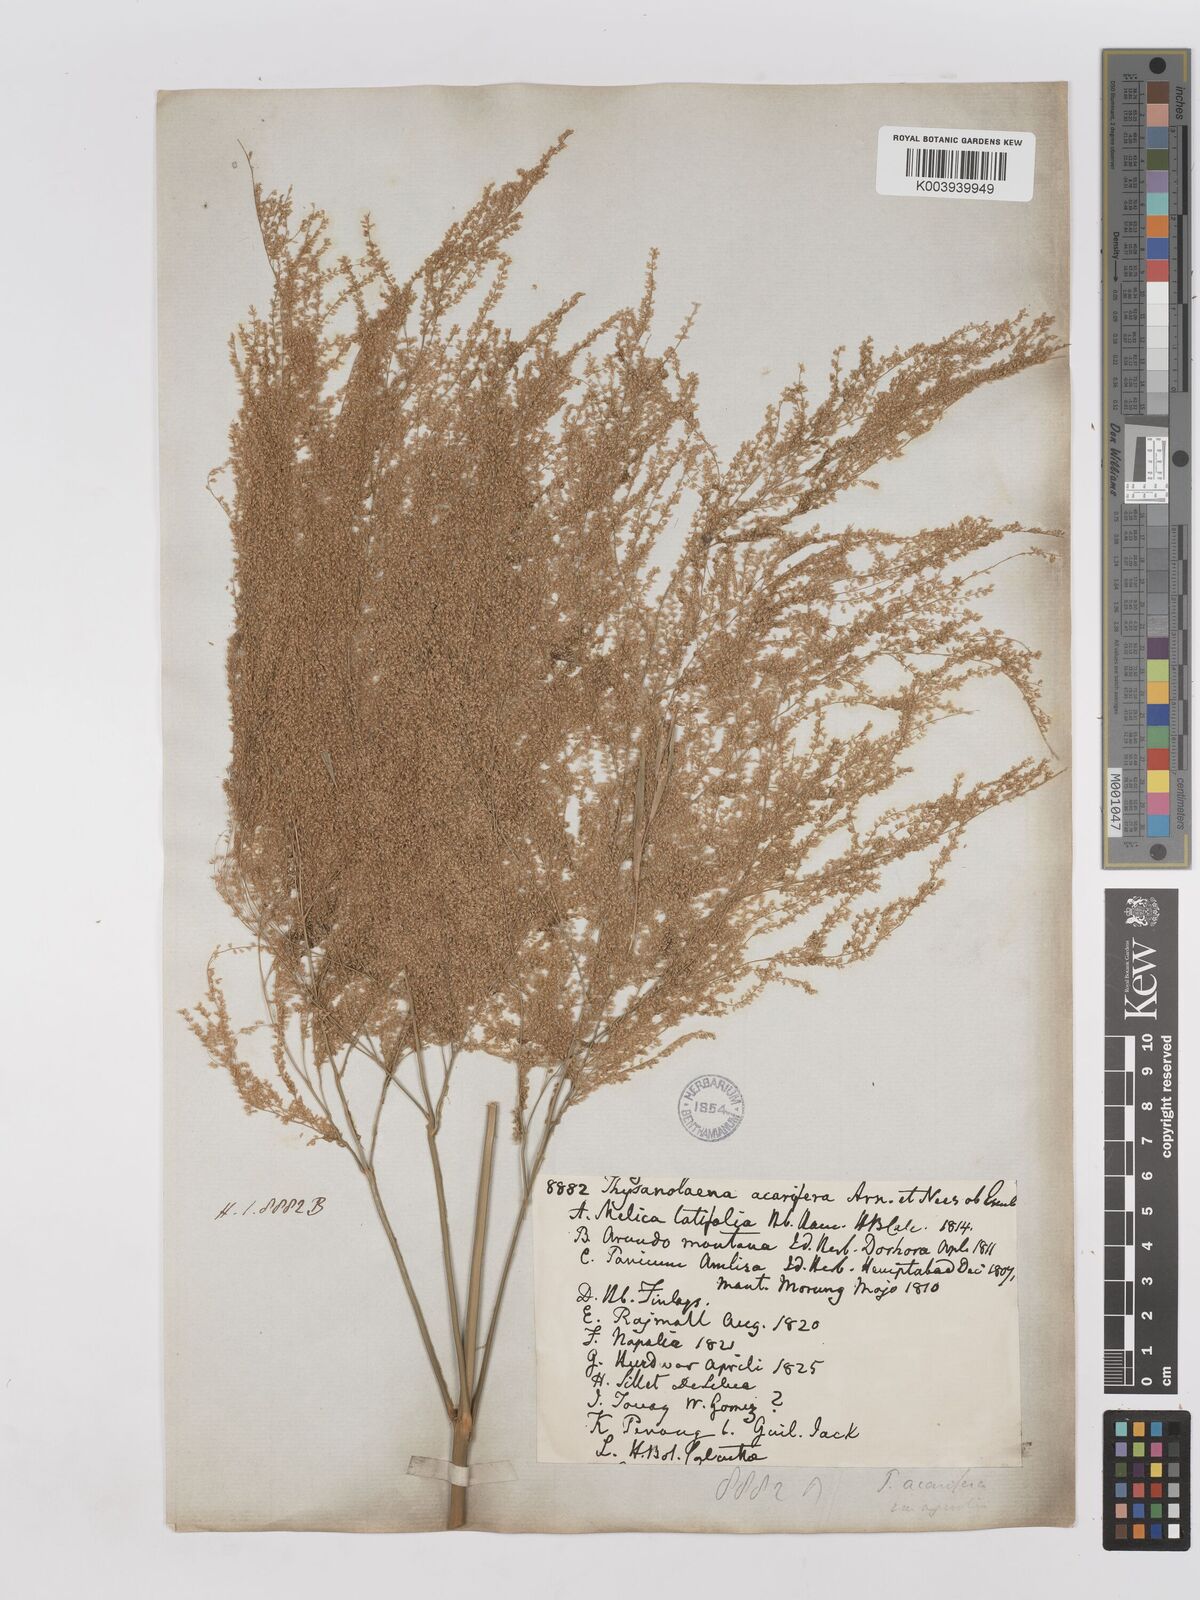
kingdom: Plantae
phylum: Tracheophyta
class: Liliopsida
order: Poales
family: Poaceae
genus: Thysanolaena
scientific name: Thysanolaena latifolia
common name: Tiger grass
